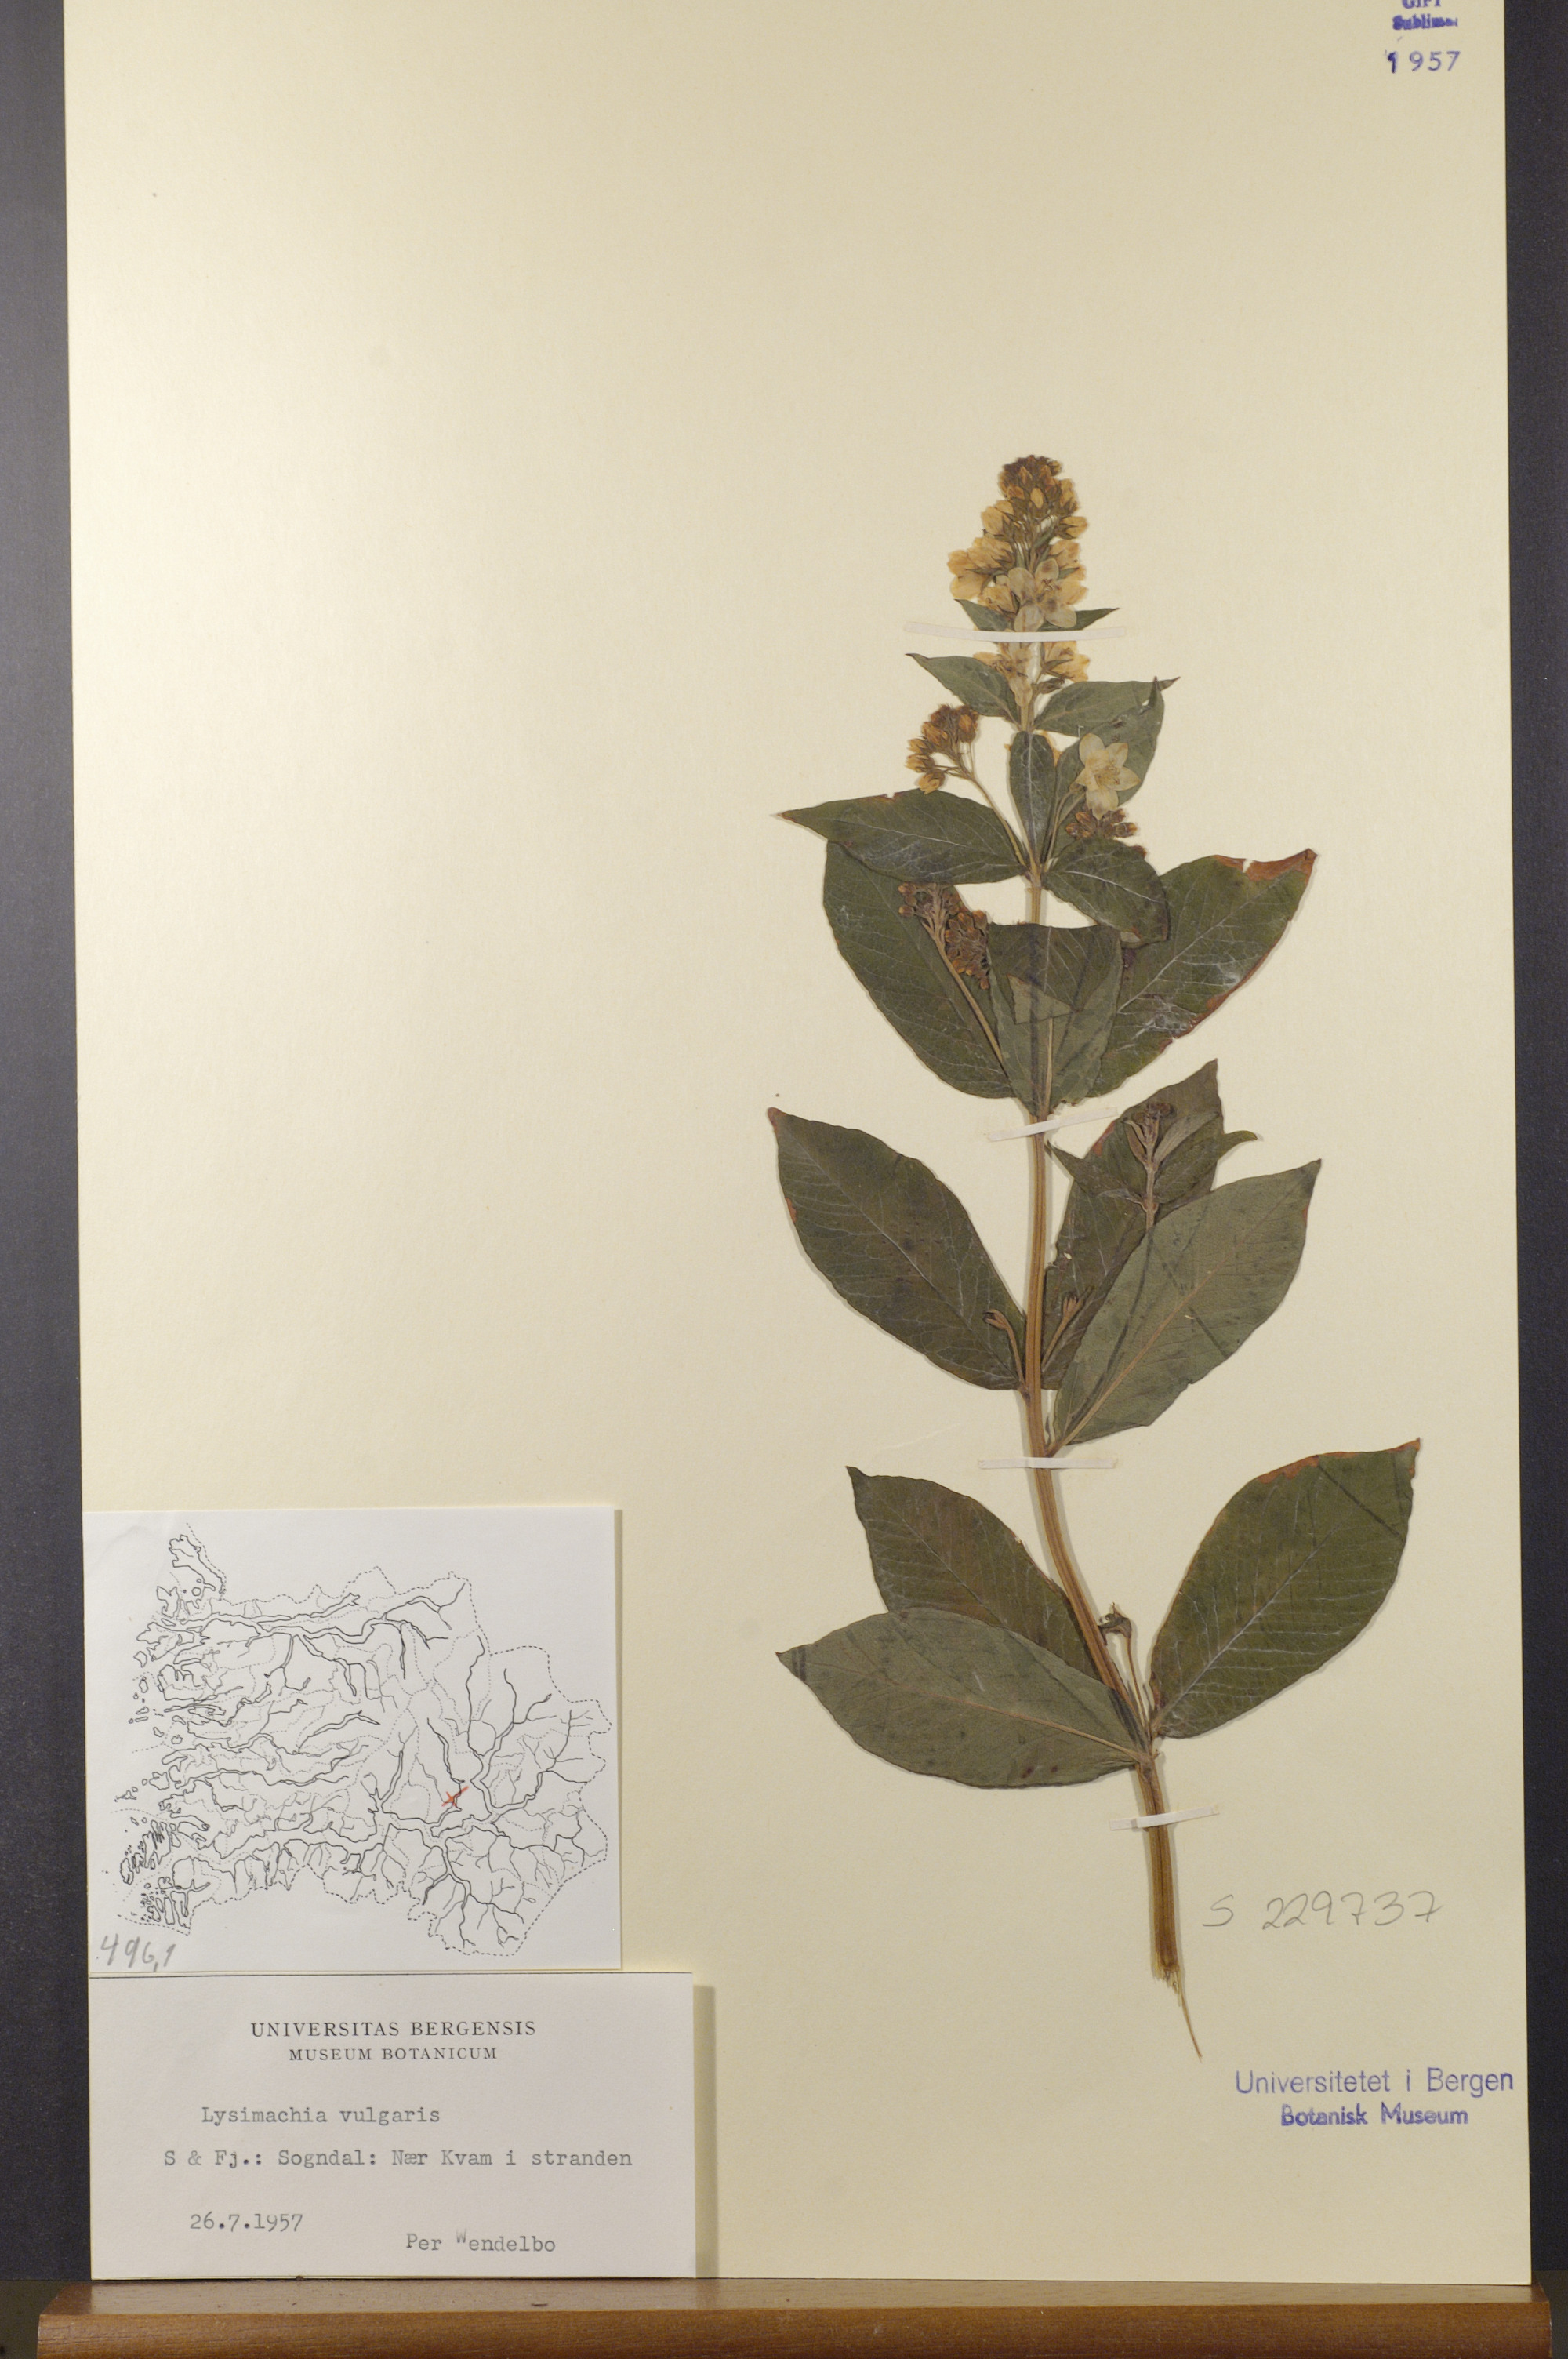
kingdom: Plantae
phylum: Tracheophyta
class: Magnoliopsida
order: Ericales
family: Primulaceae
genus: Lysimachia
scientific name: Lysimachia vulgaris
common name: Yellow loosestrife
